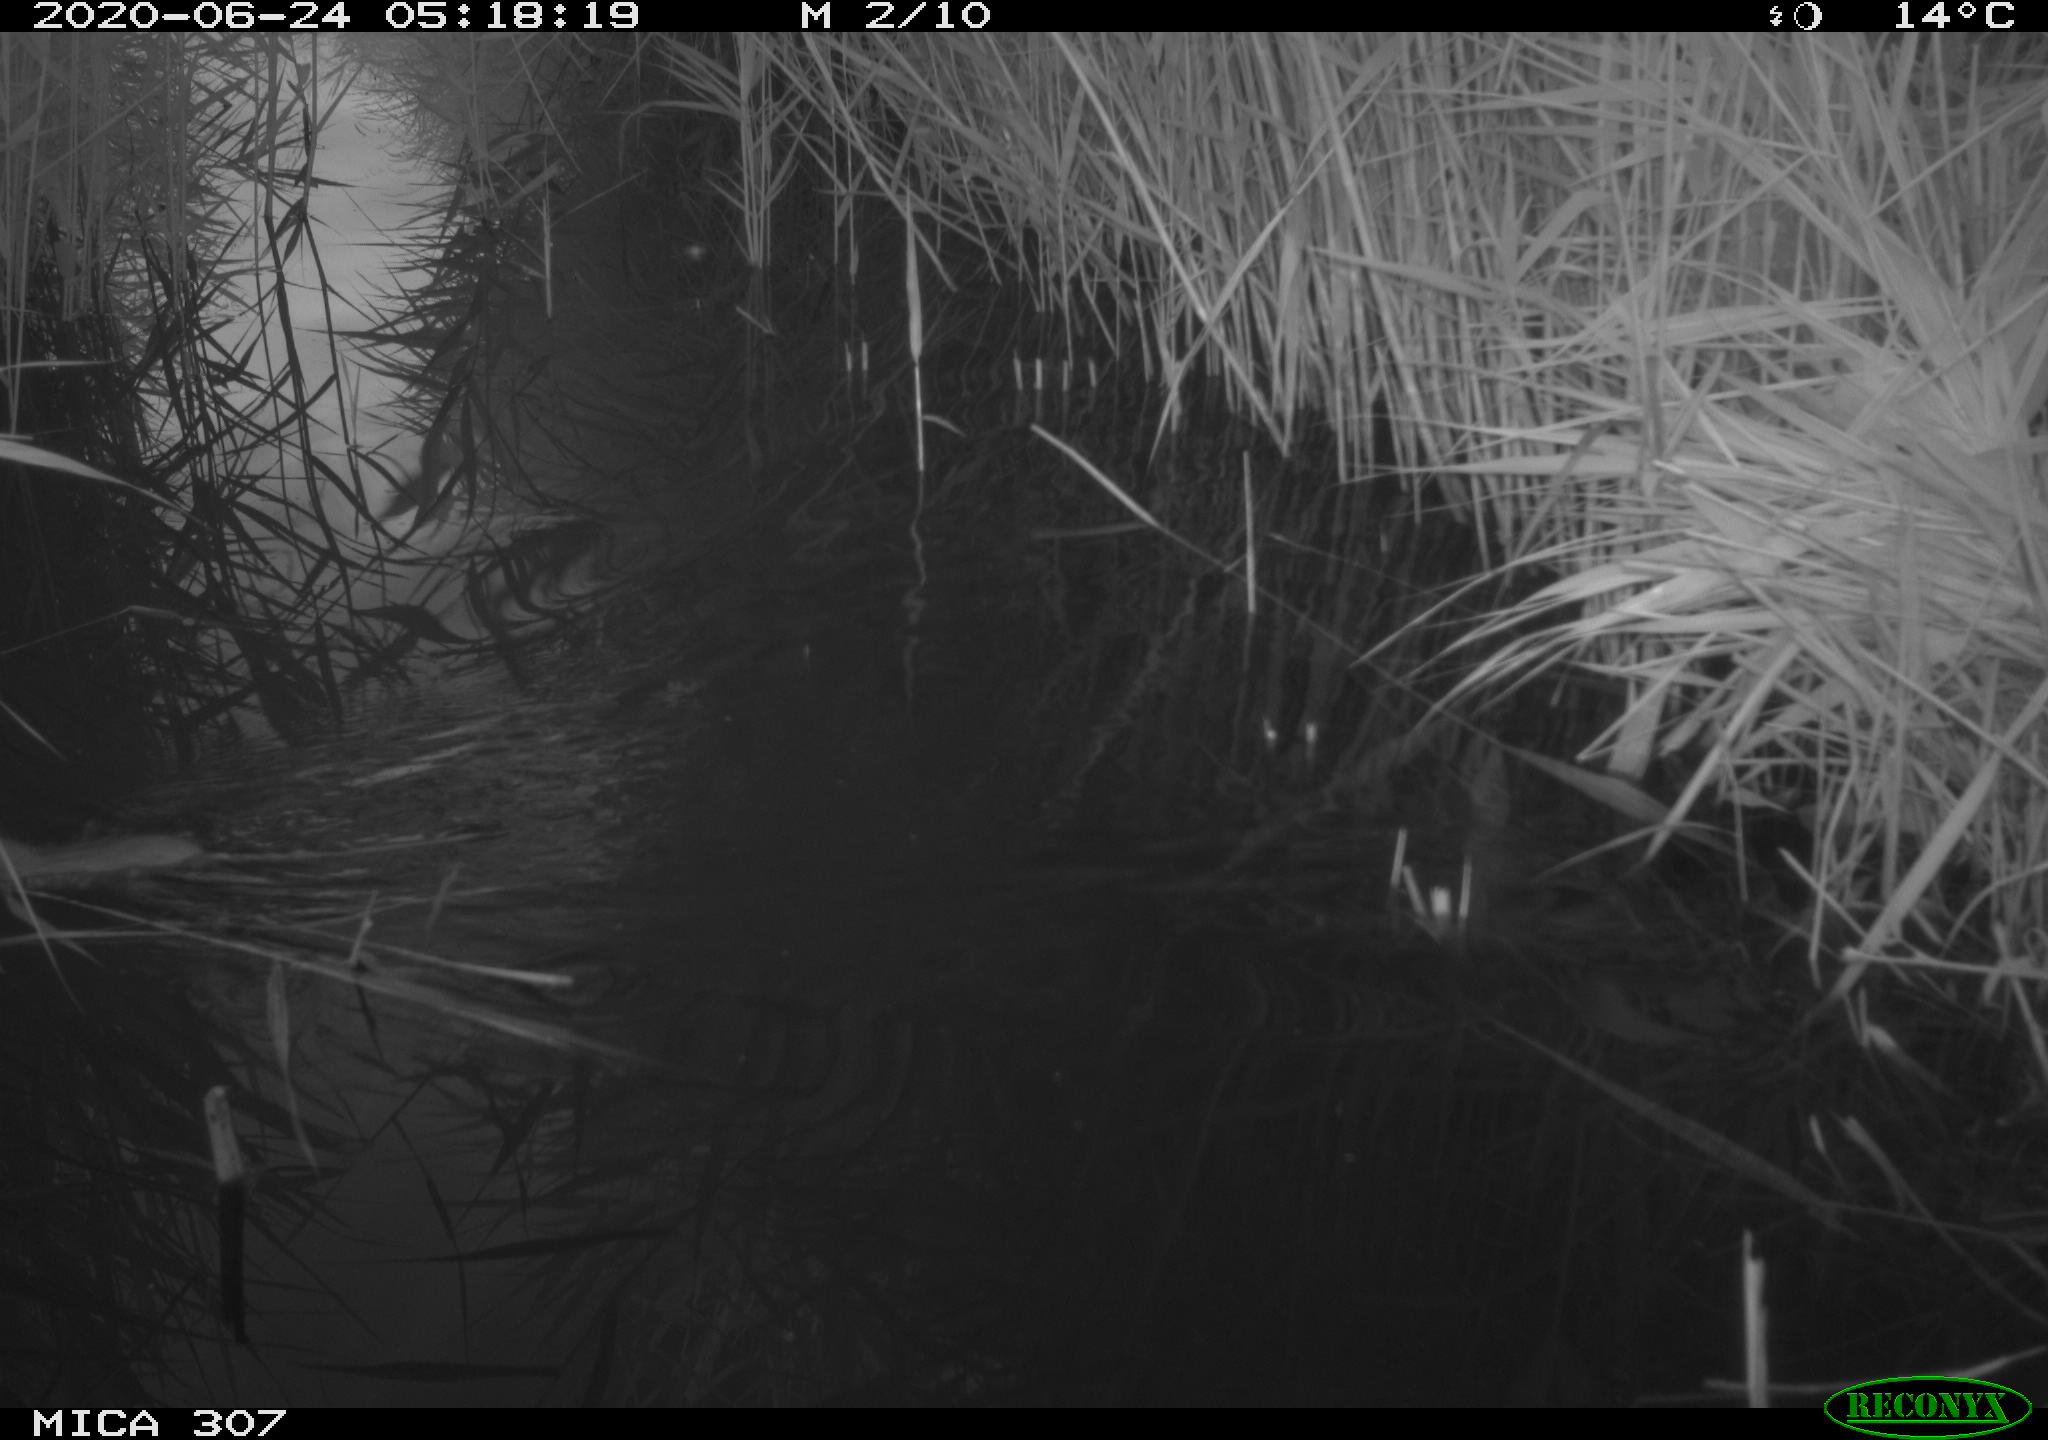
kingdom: Animalia
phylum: Chordata
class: Mammalia
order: Rodentia
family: Muridae
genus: Rattus
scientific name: Rattus norvegicus
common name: Brown rat
